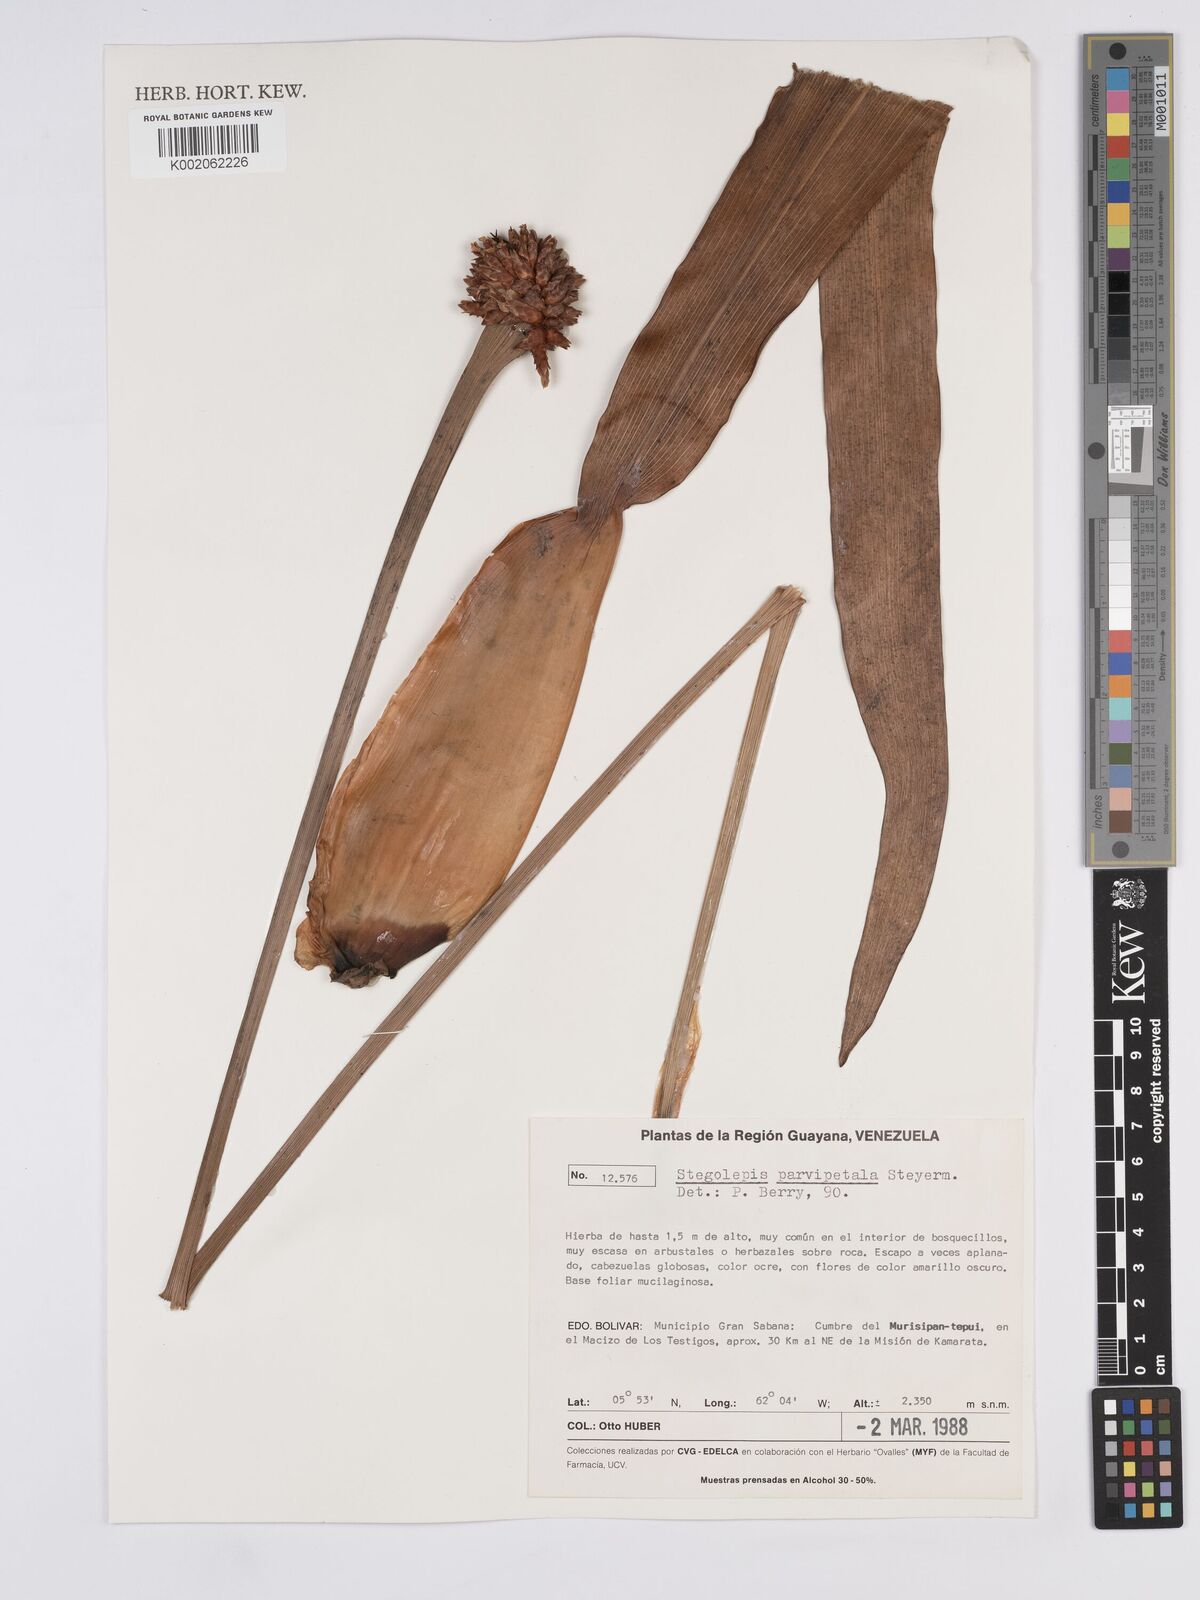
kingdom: Plantae
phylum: Tracheophyta
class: Liliopsida
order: Poales
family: Rapateaceae
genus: Stegolepis
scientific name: Stegolepis parvipetala
